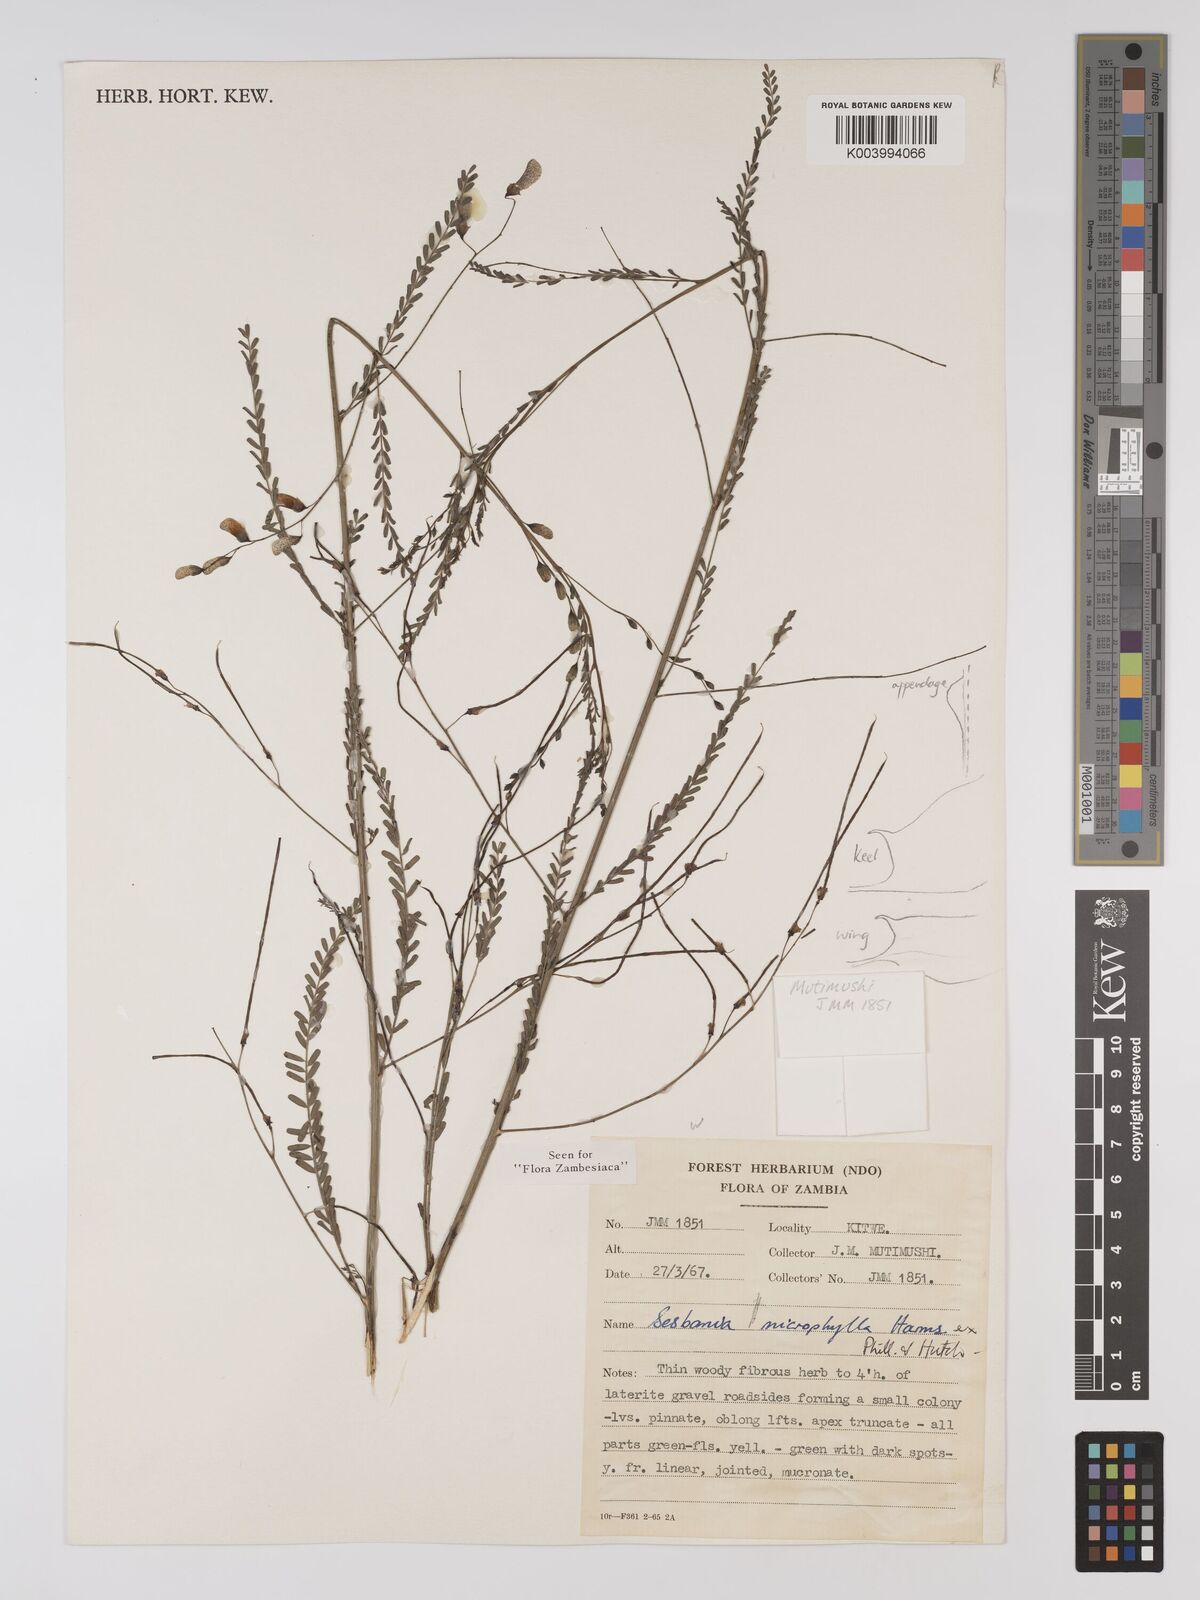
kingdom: Plantae
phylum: Tracheophyta
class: Magnoliopsida
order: Fabales
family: Fabaceae
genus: Sesbania
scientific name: Sesbania microphylla
